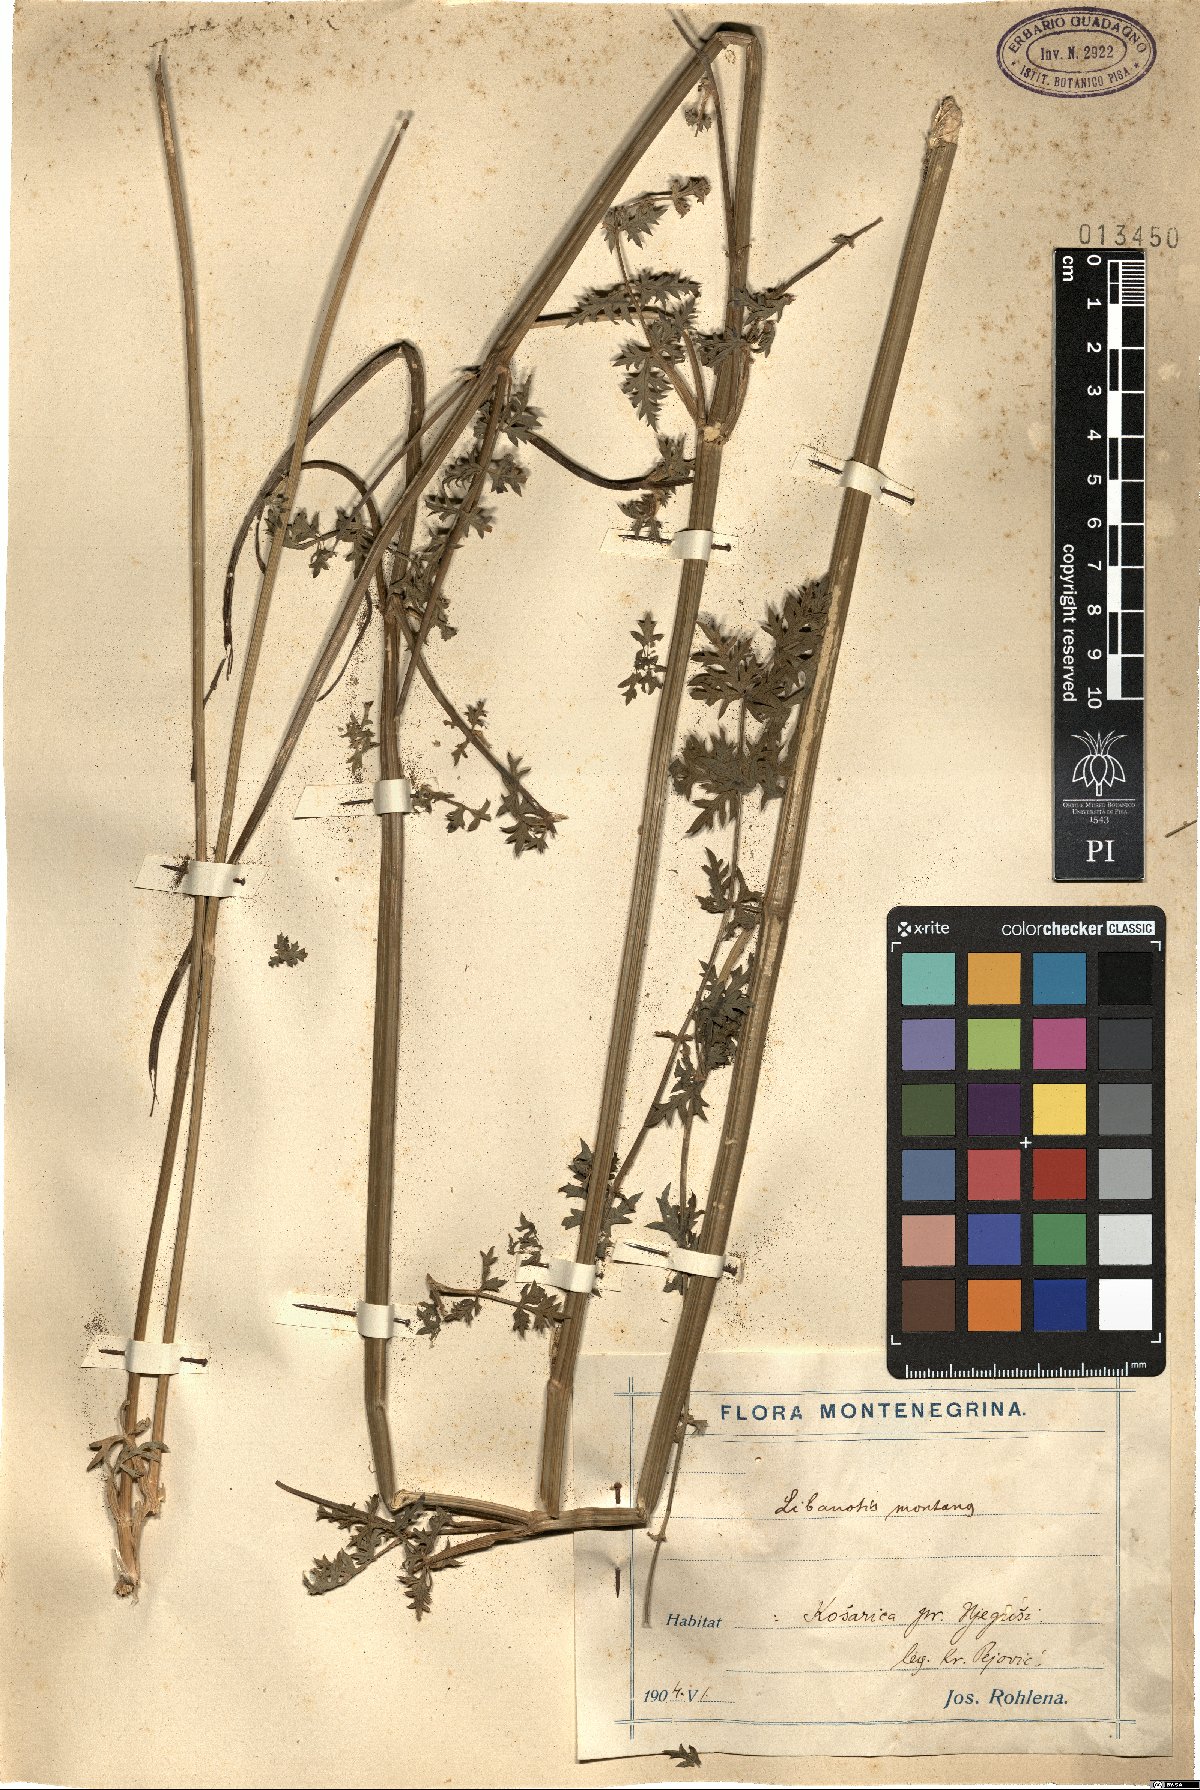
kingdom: Plantae
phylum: Tracheophyta
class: Magnoliopsida
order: Apiales
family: Apiaceae
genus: Seseli
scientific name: Seseli libanotis
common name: Mooncarrot
